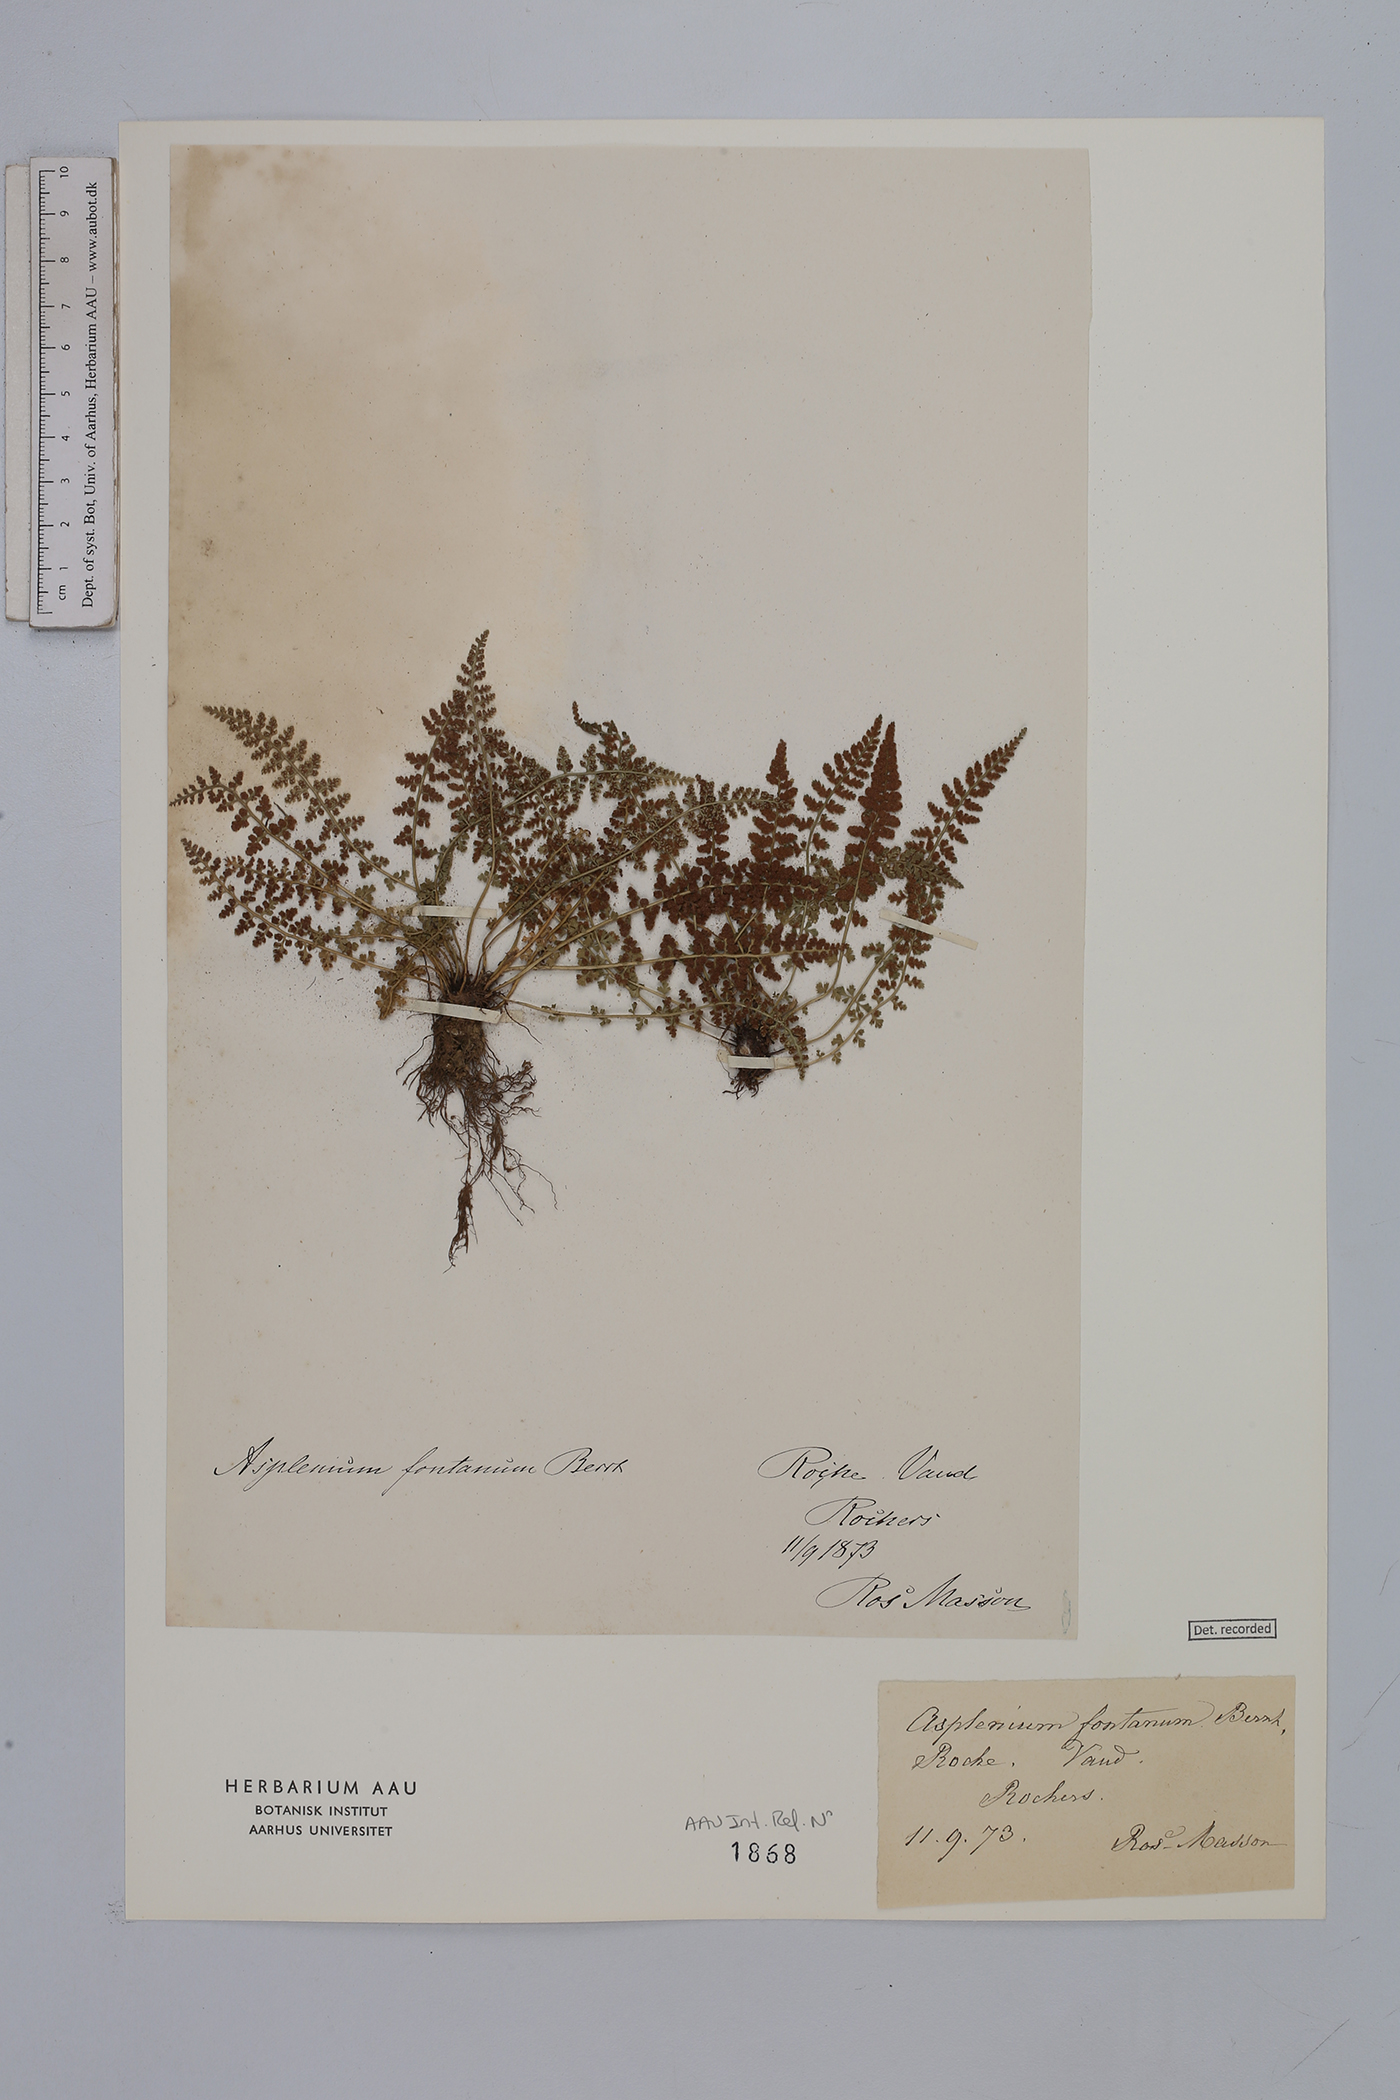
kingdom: Plantae
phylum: Tracheophyta
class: Polypodiopsida
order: Polypodiales
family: Aspleniaceae
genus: Asplenium
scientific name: Asplenium fontanum
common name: Fountain spleenwort
